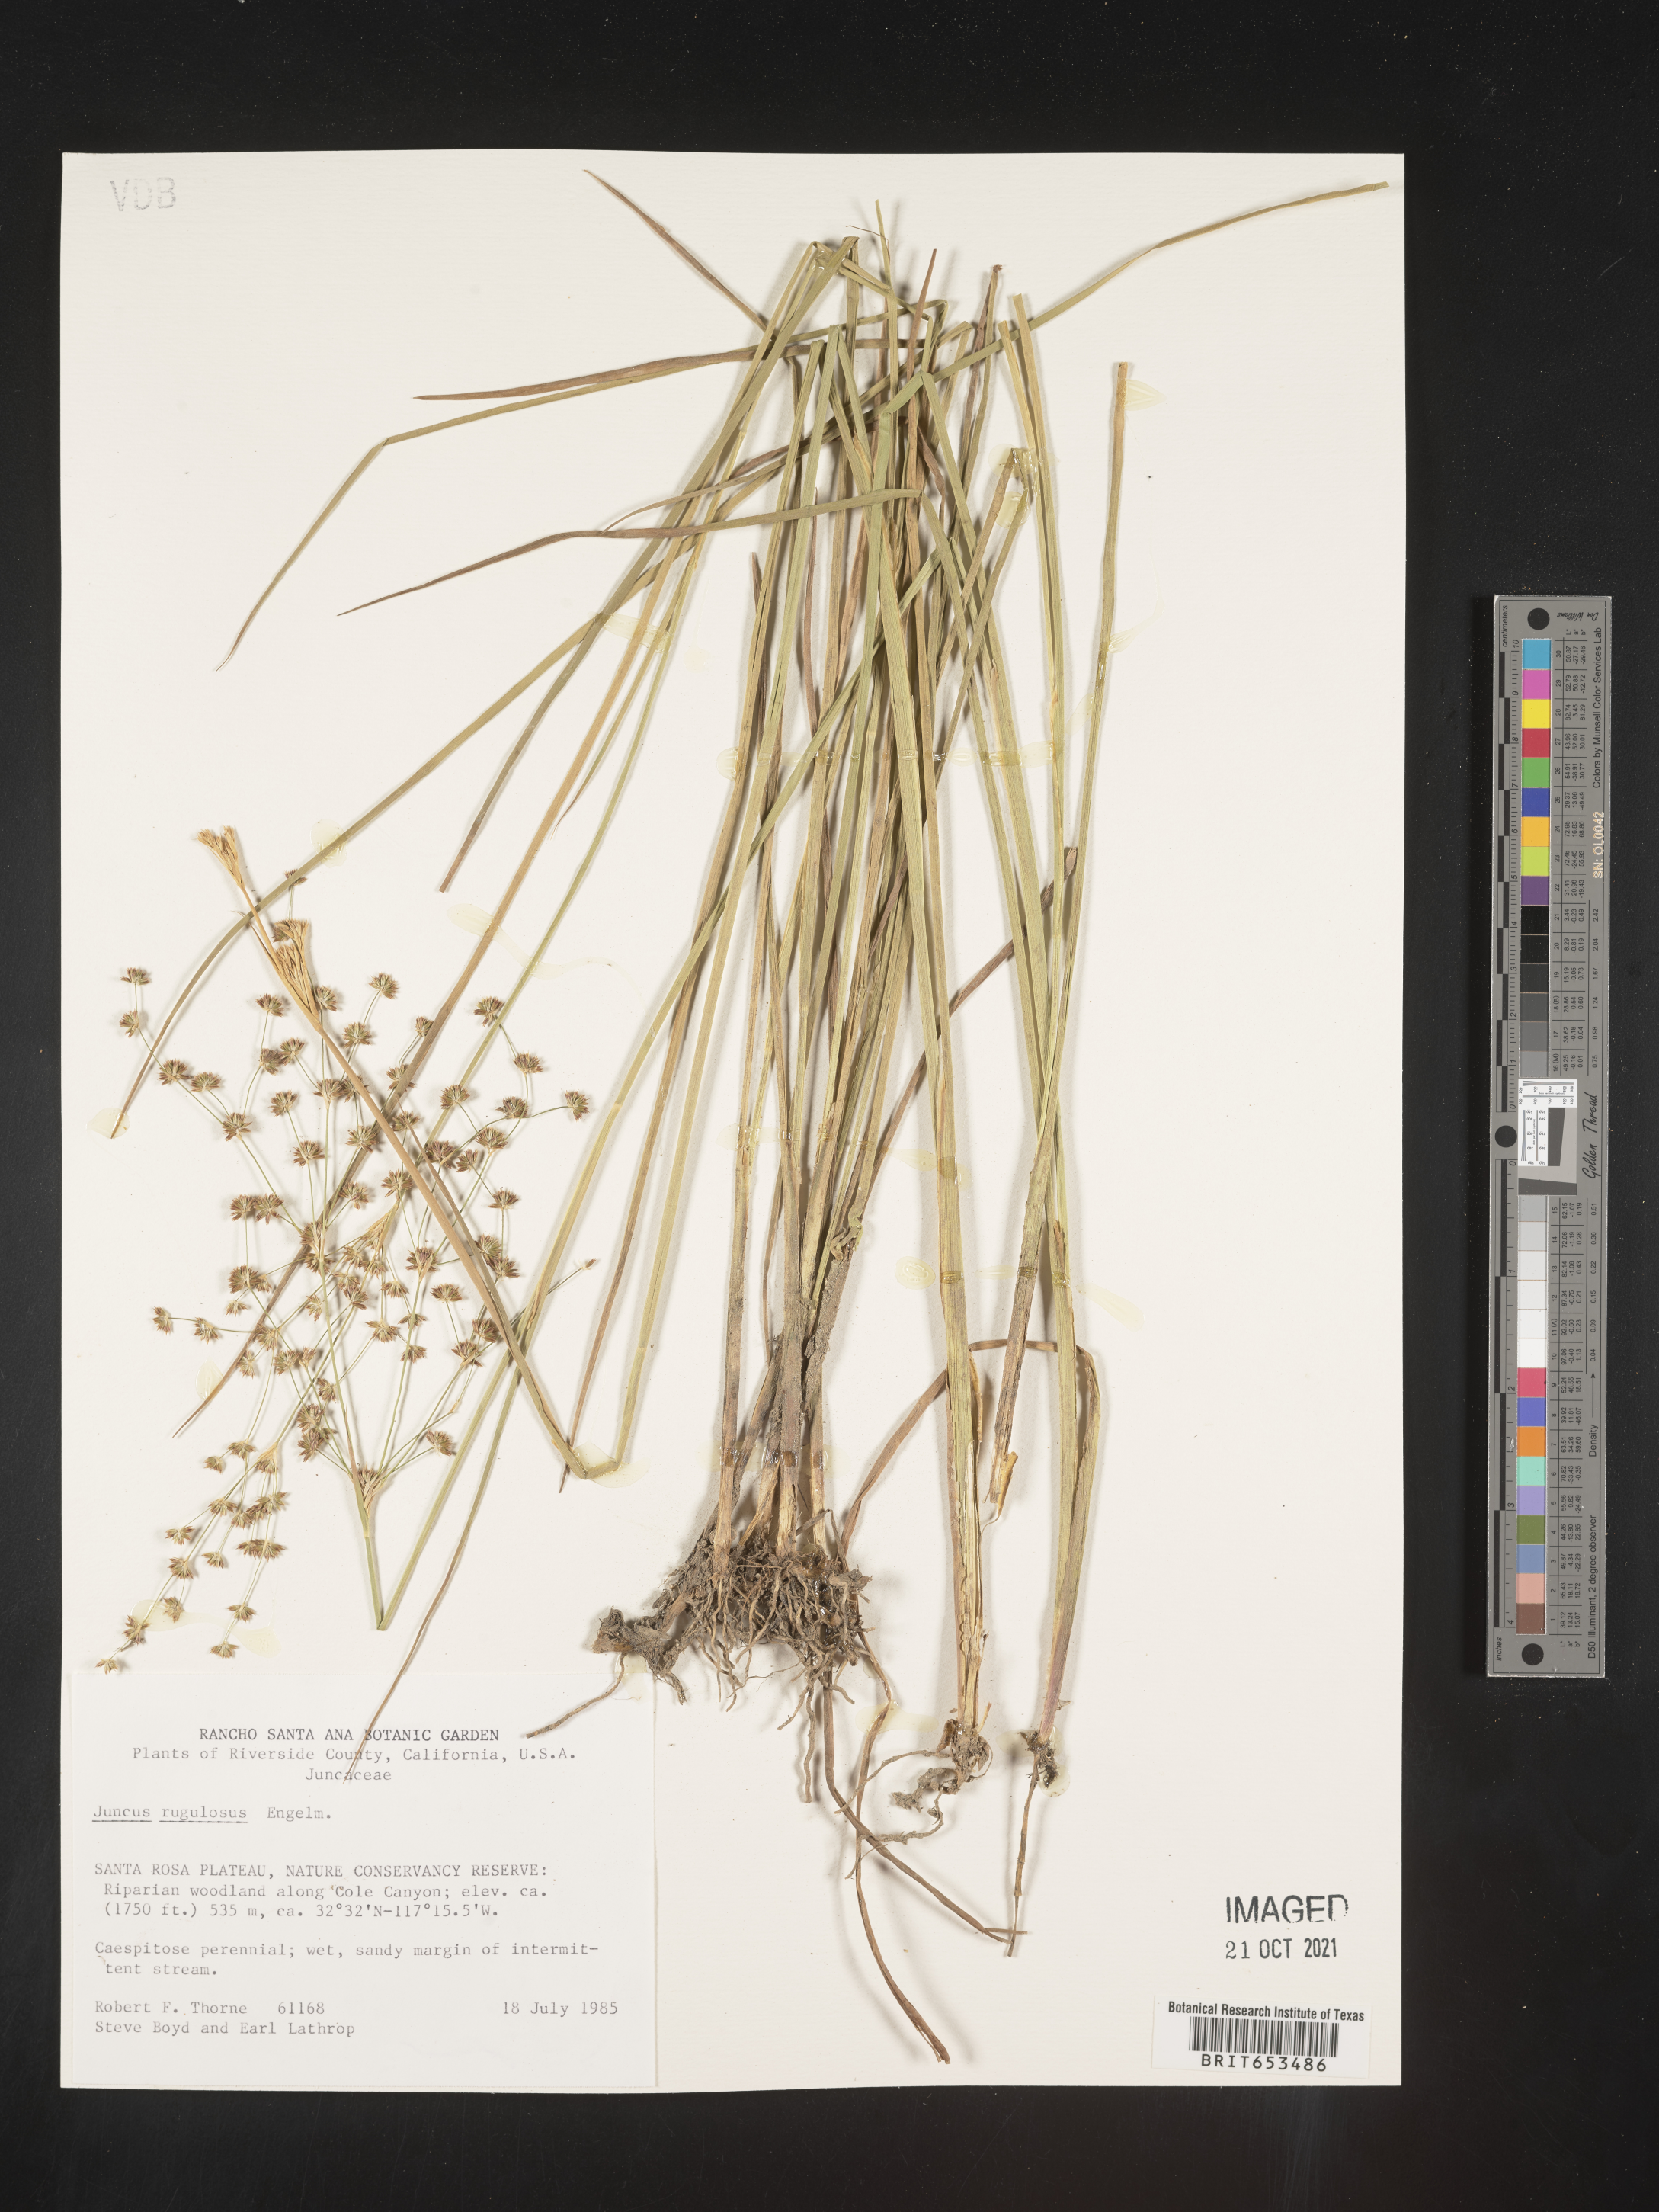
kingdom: Plantae
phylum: Tracheophyta
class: Liliopsida
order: Poales
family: Juncaceae
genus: Juncus
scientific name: Juncus rugulosus
